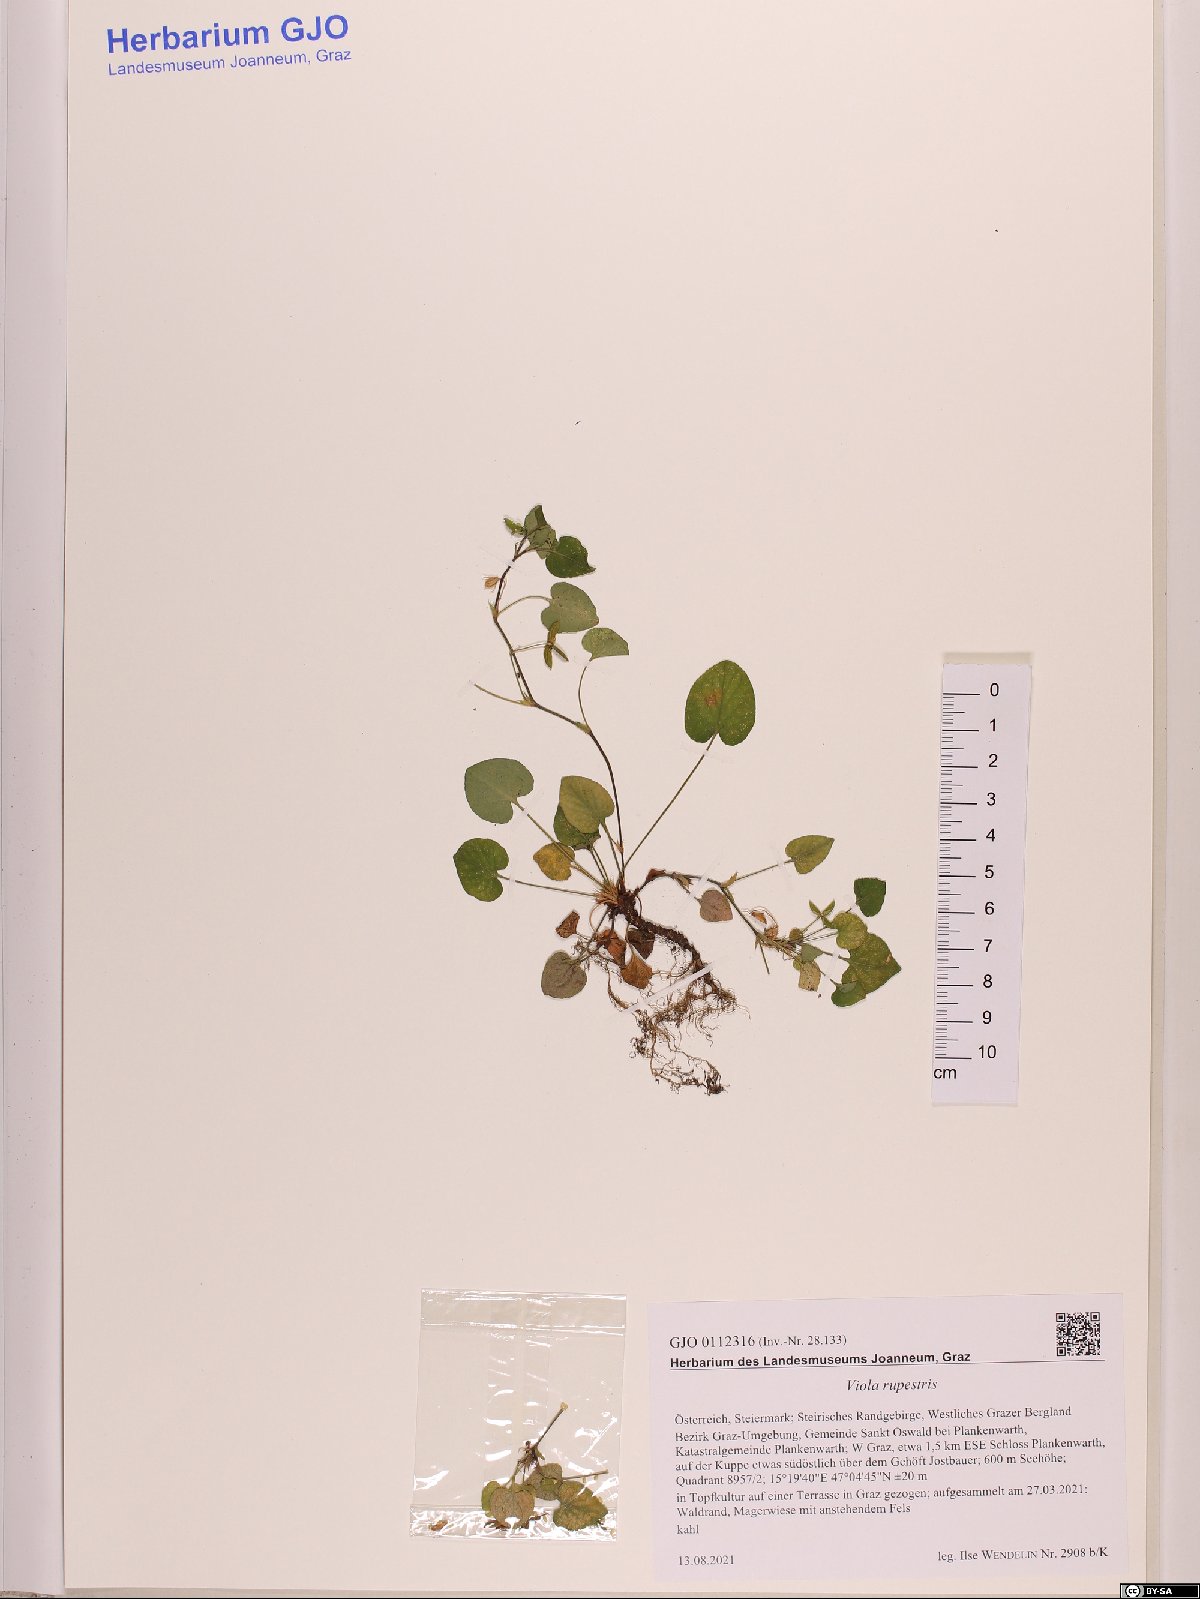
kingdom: Plantae
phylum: Tracheophyta
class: Magnoliopsida
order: Malpighiales
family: Violaceae
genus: Viola
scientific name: Viola rupestris
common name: Teesdale violet
